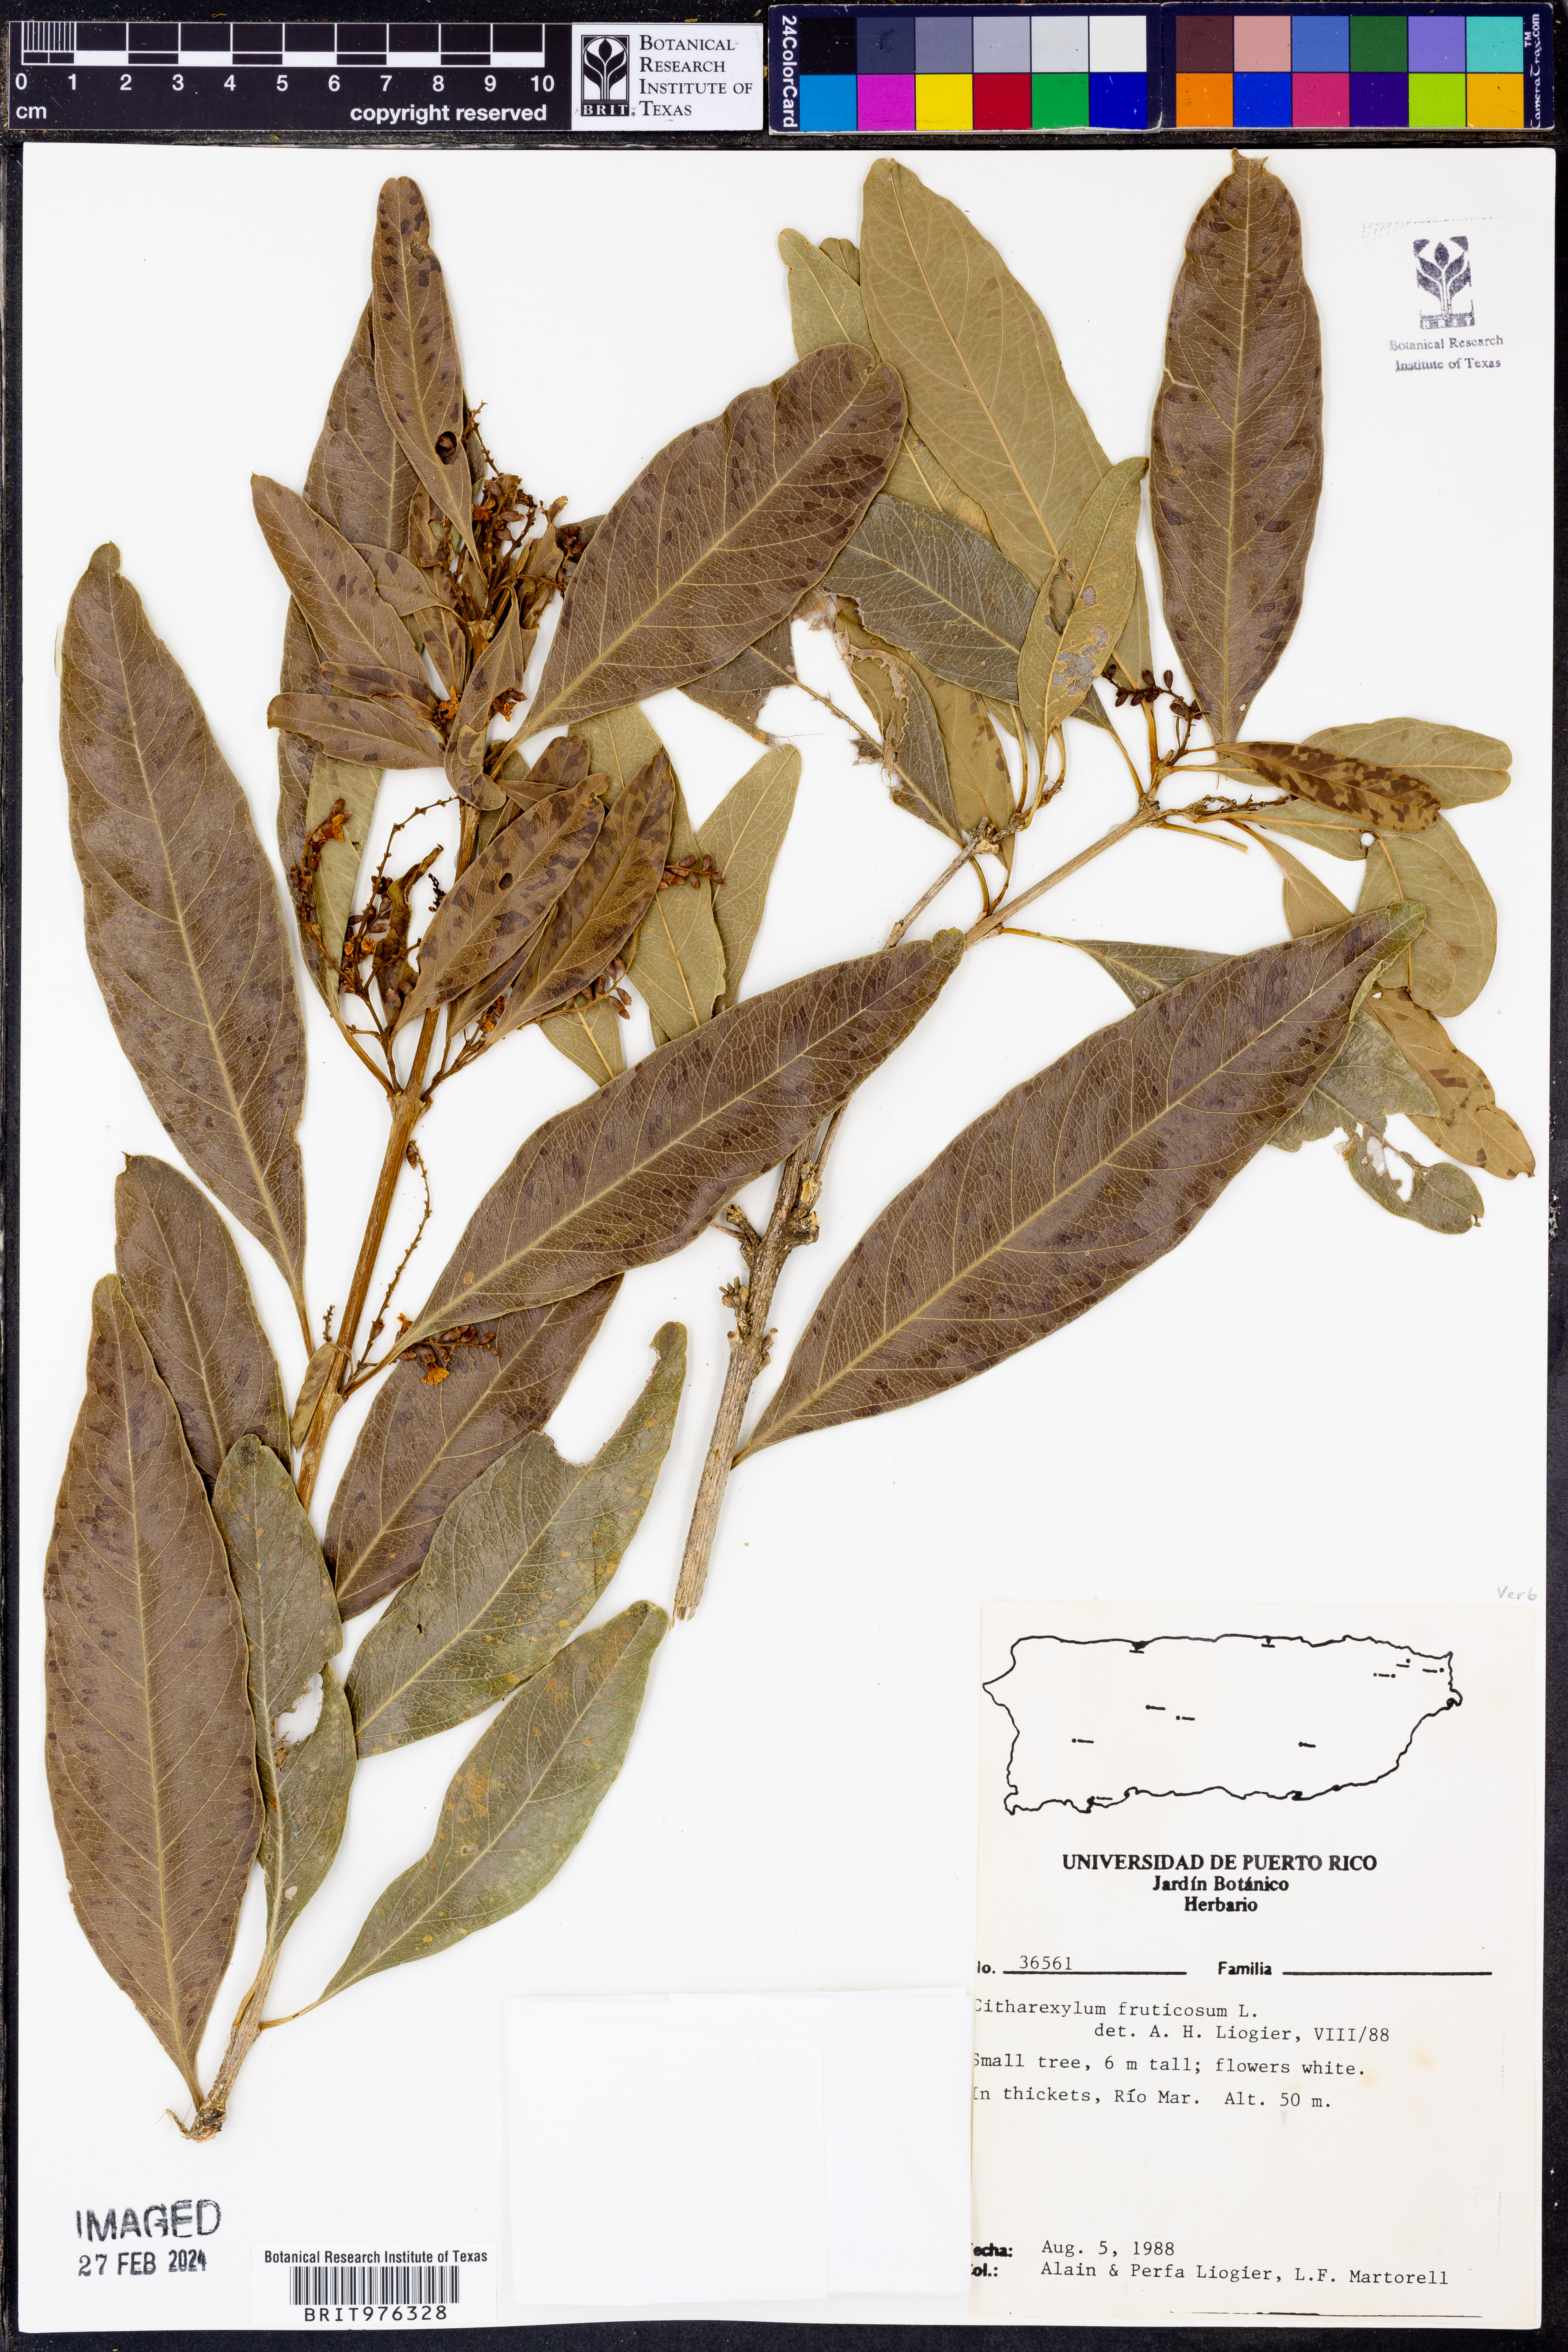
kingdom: Plantae
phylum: Tracheophyta
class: Magnoliopsida
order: Lamiales
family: Verbenaceae
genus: Citharexylum
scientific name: Citharexylum
